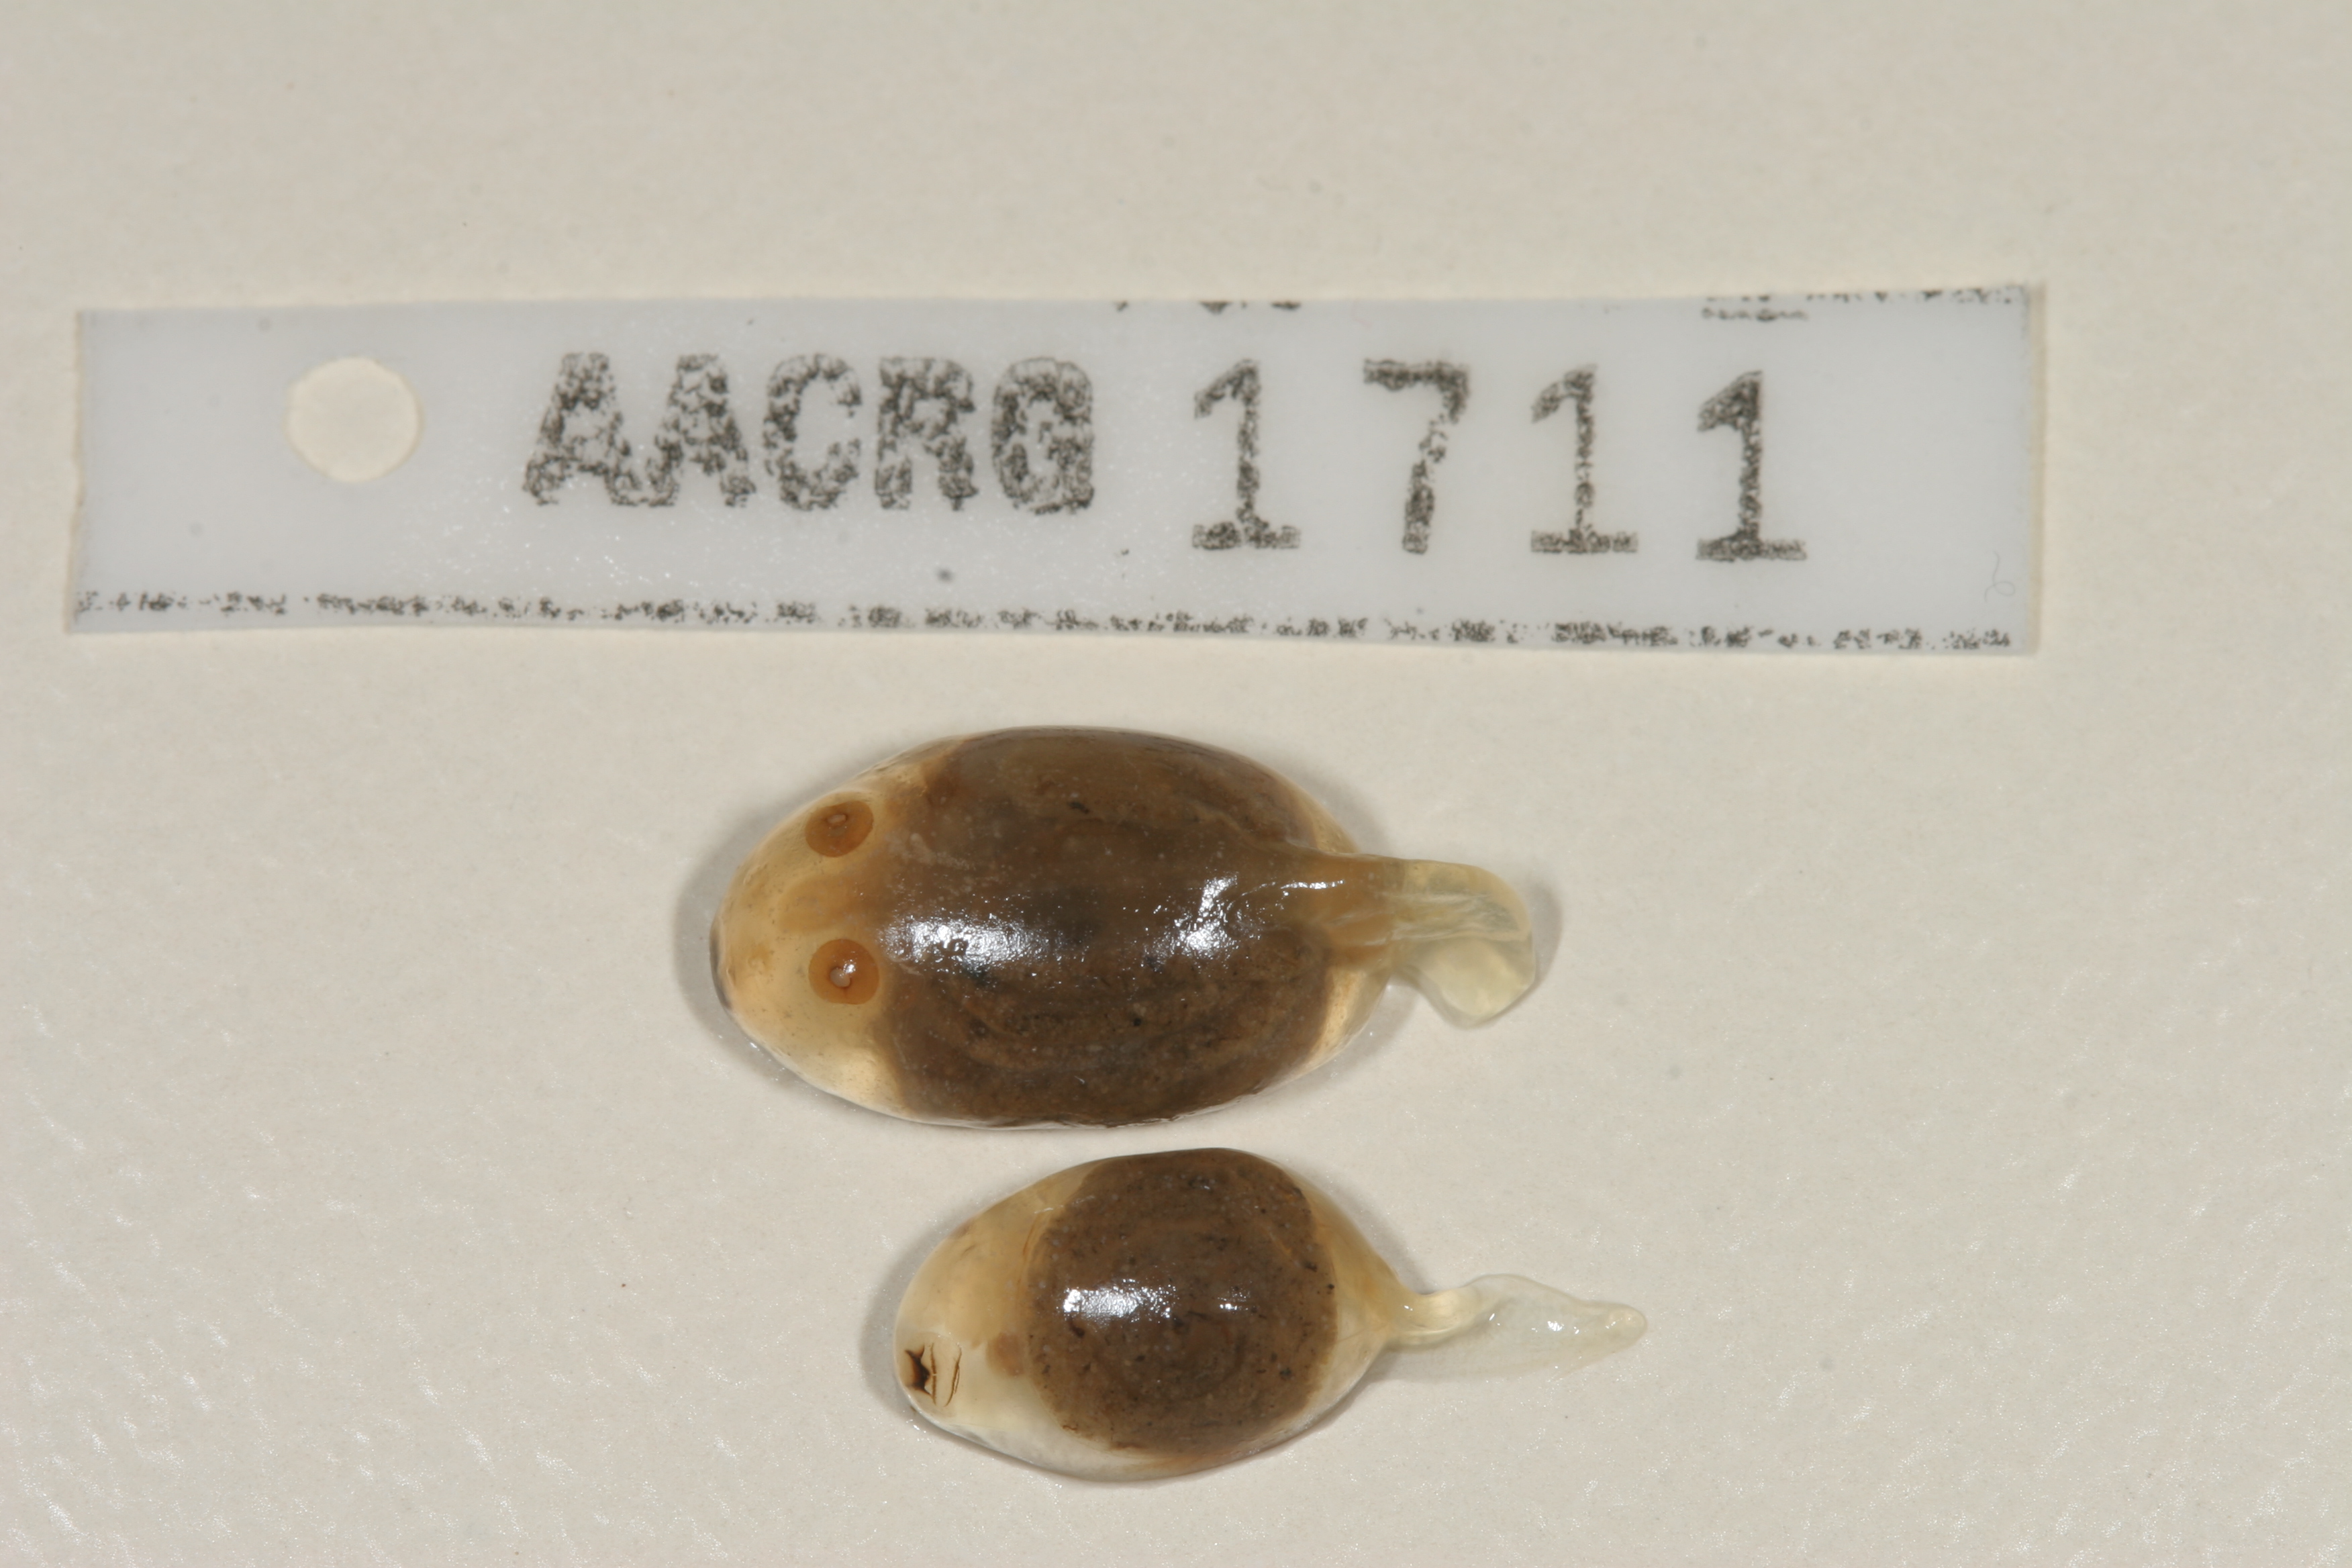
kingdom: Animalia
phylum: Chordata
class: Amphibia
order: Anura
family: Pyxicephalidae
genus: Tomopterna
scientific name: Tomopterna delalandii
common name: Delalande's burrowing bullfrog
